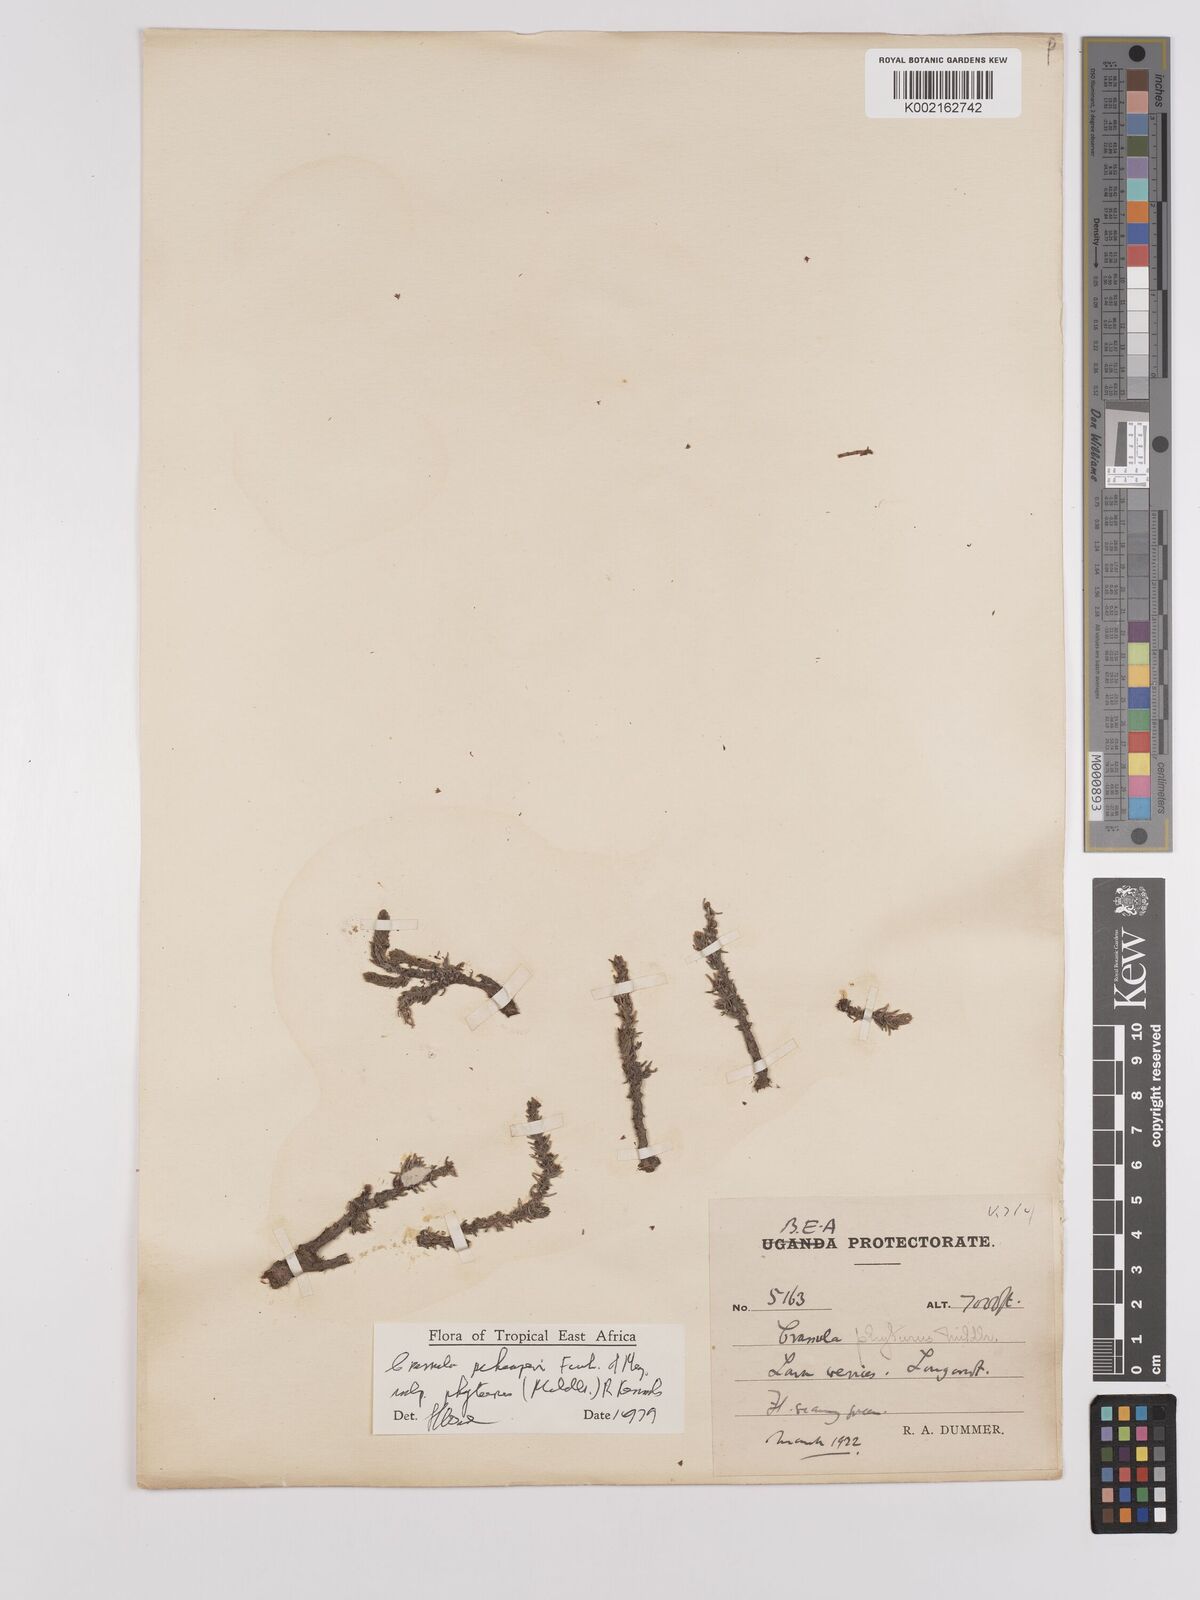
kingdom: Plantae
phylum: Tracheophyta
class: Magnoliopsida
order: Saxifragales
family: Crassulaceae
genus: Crassula
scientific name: Crassula schimperi
